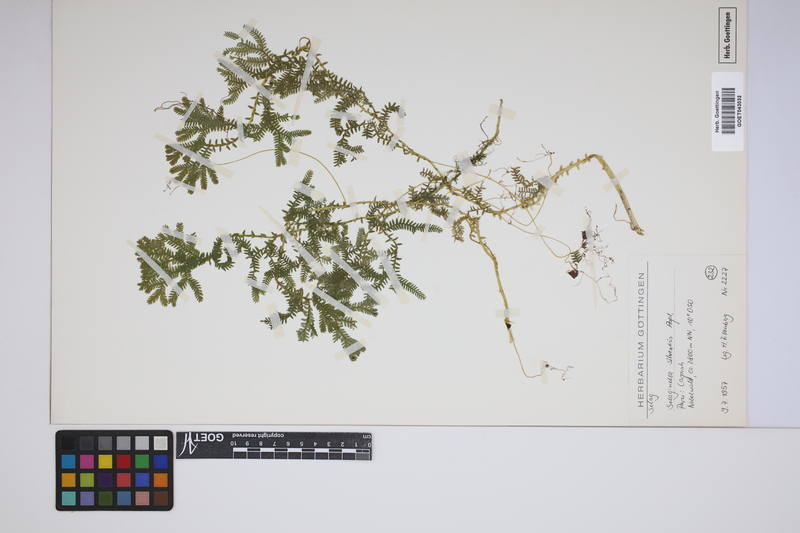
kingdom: Plantae
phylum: Tracheophyta
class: Lycopodiopsida
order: Selaginellales
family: Selaginellaceae
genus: Selaginella
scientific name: Selaginella silvestris
